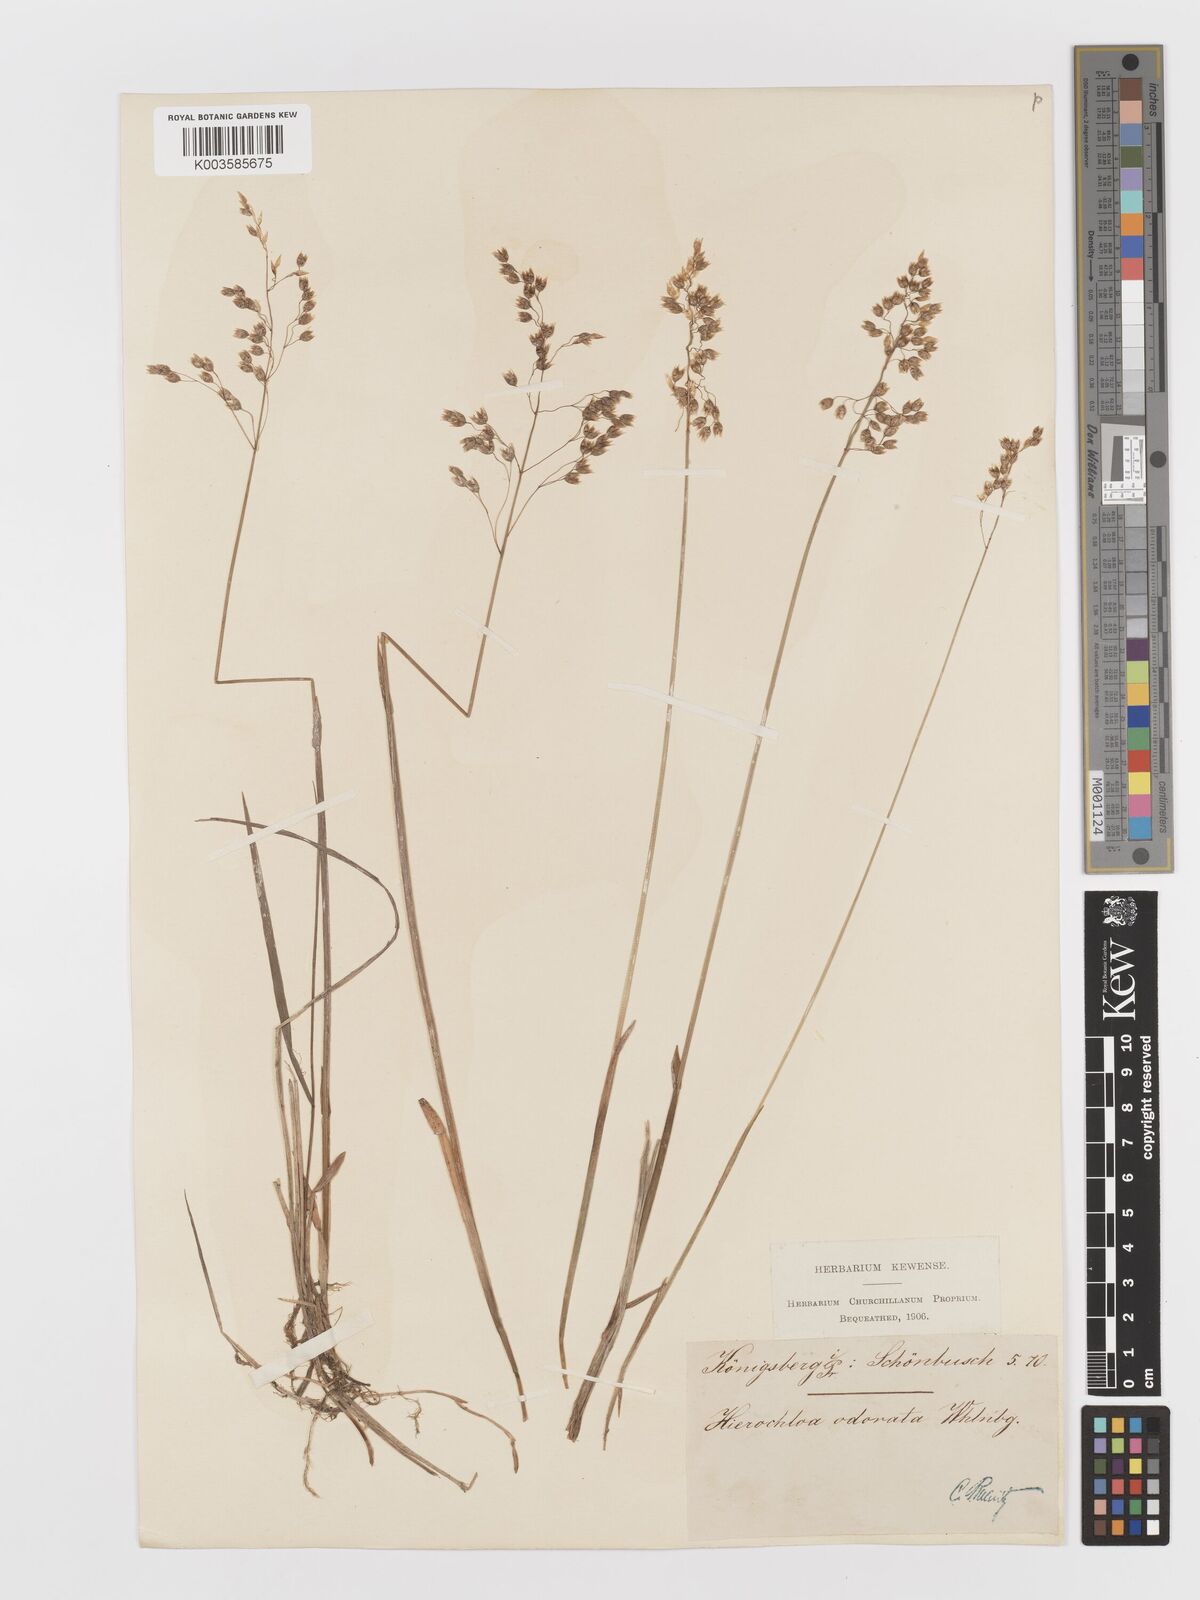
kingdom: Plantae
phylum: Tracheophyta
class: Liliopsida
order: Poales
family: Poaceae
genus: Anthoxanthum
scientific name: Anthoxanthum nitens
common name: Holy grass
